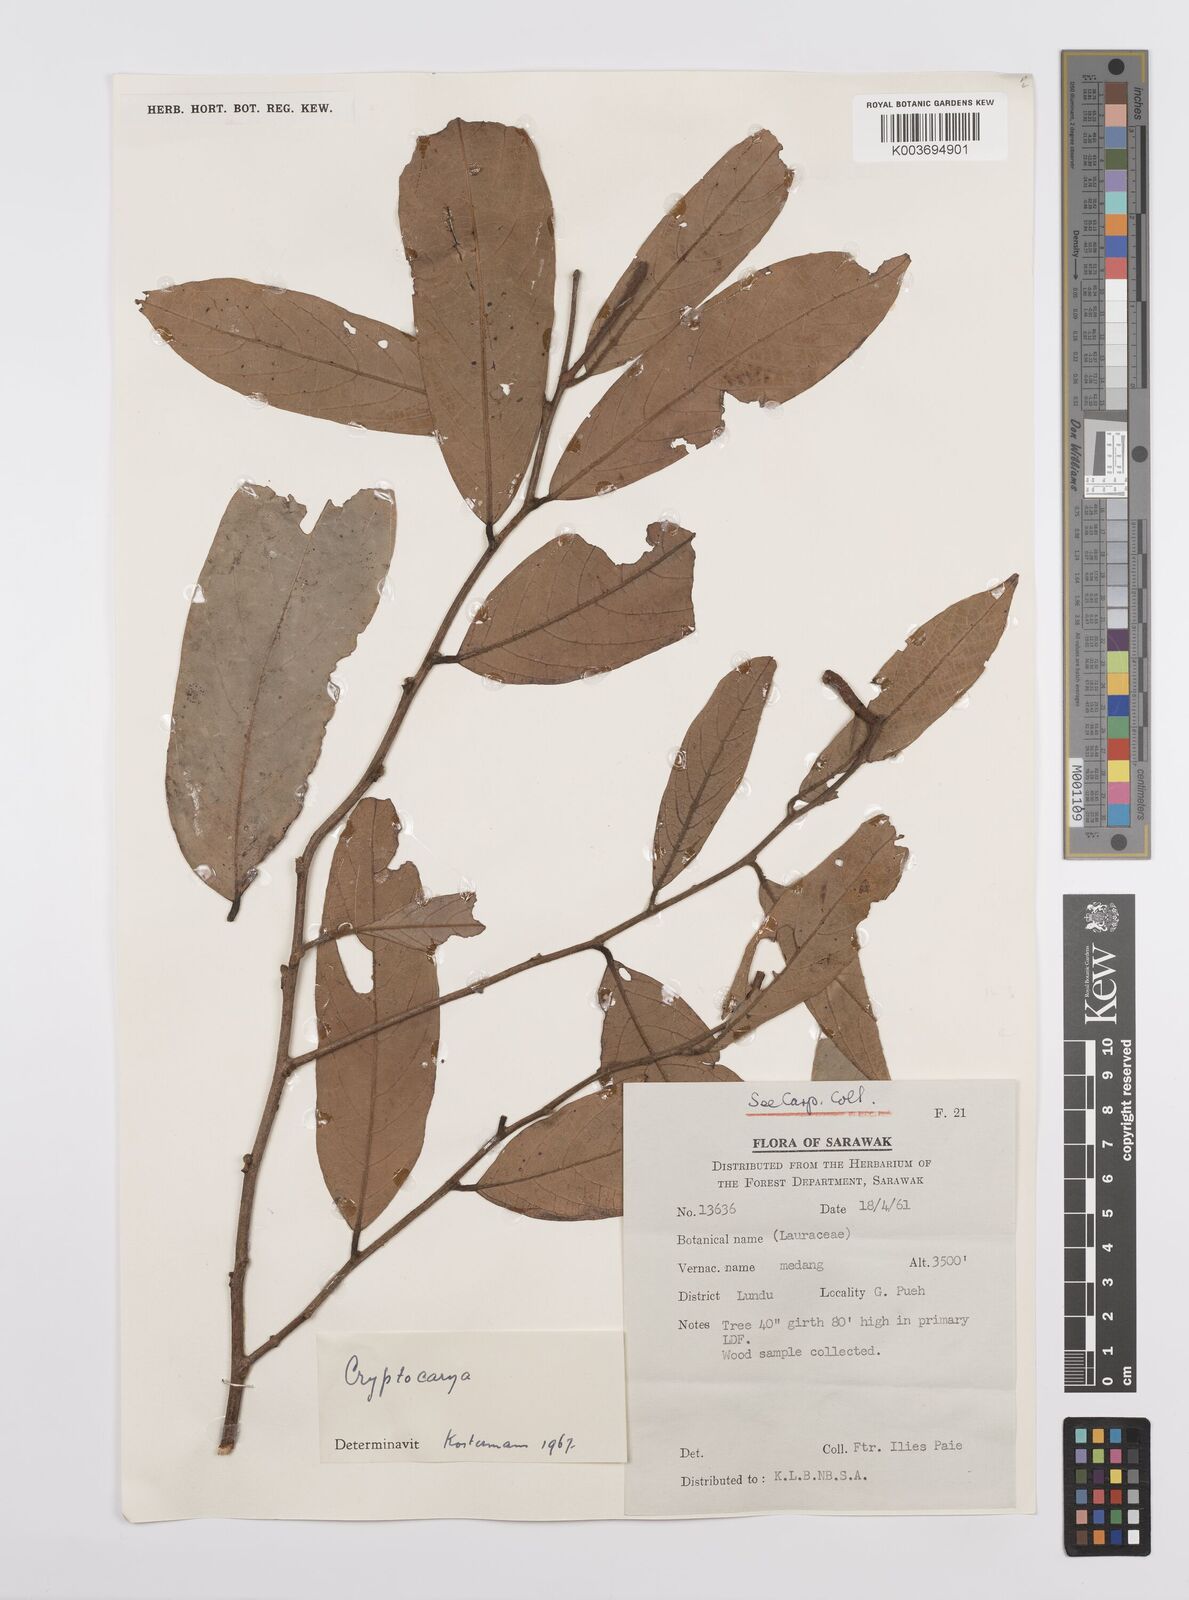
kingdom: Plantae
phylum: Tracheophyta
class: Magnoliopsida
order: Laurales
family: Lauraceae
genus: Cryptocarya
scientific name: Cryptocarya
